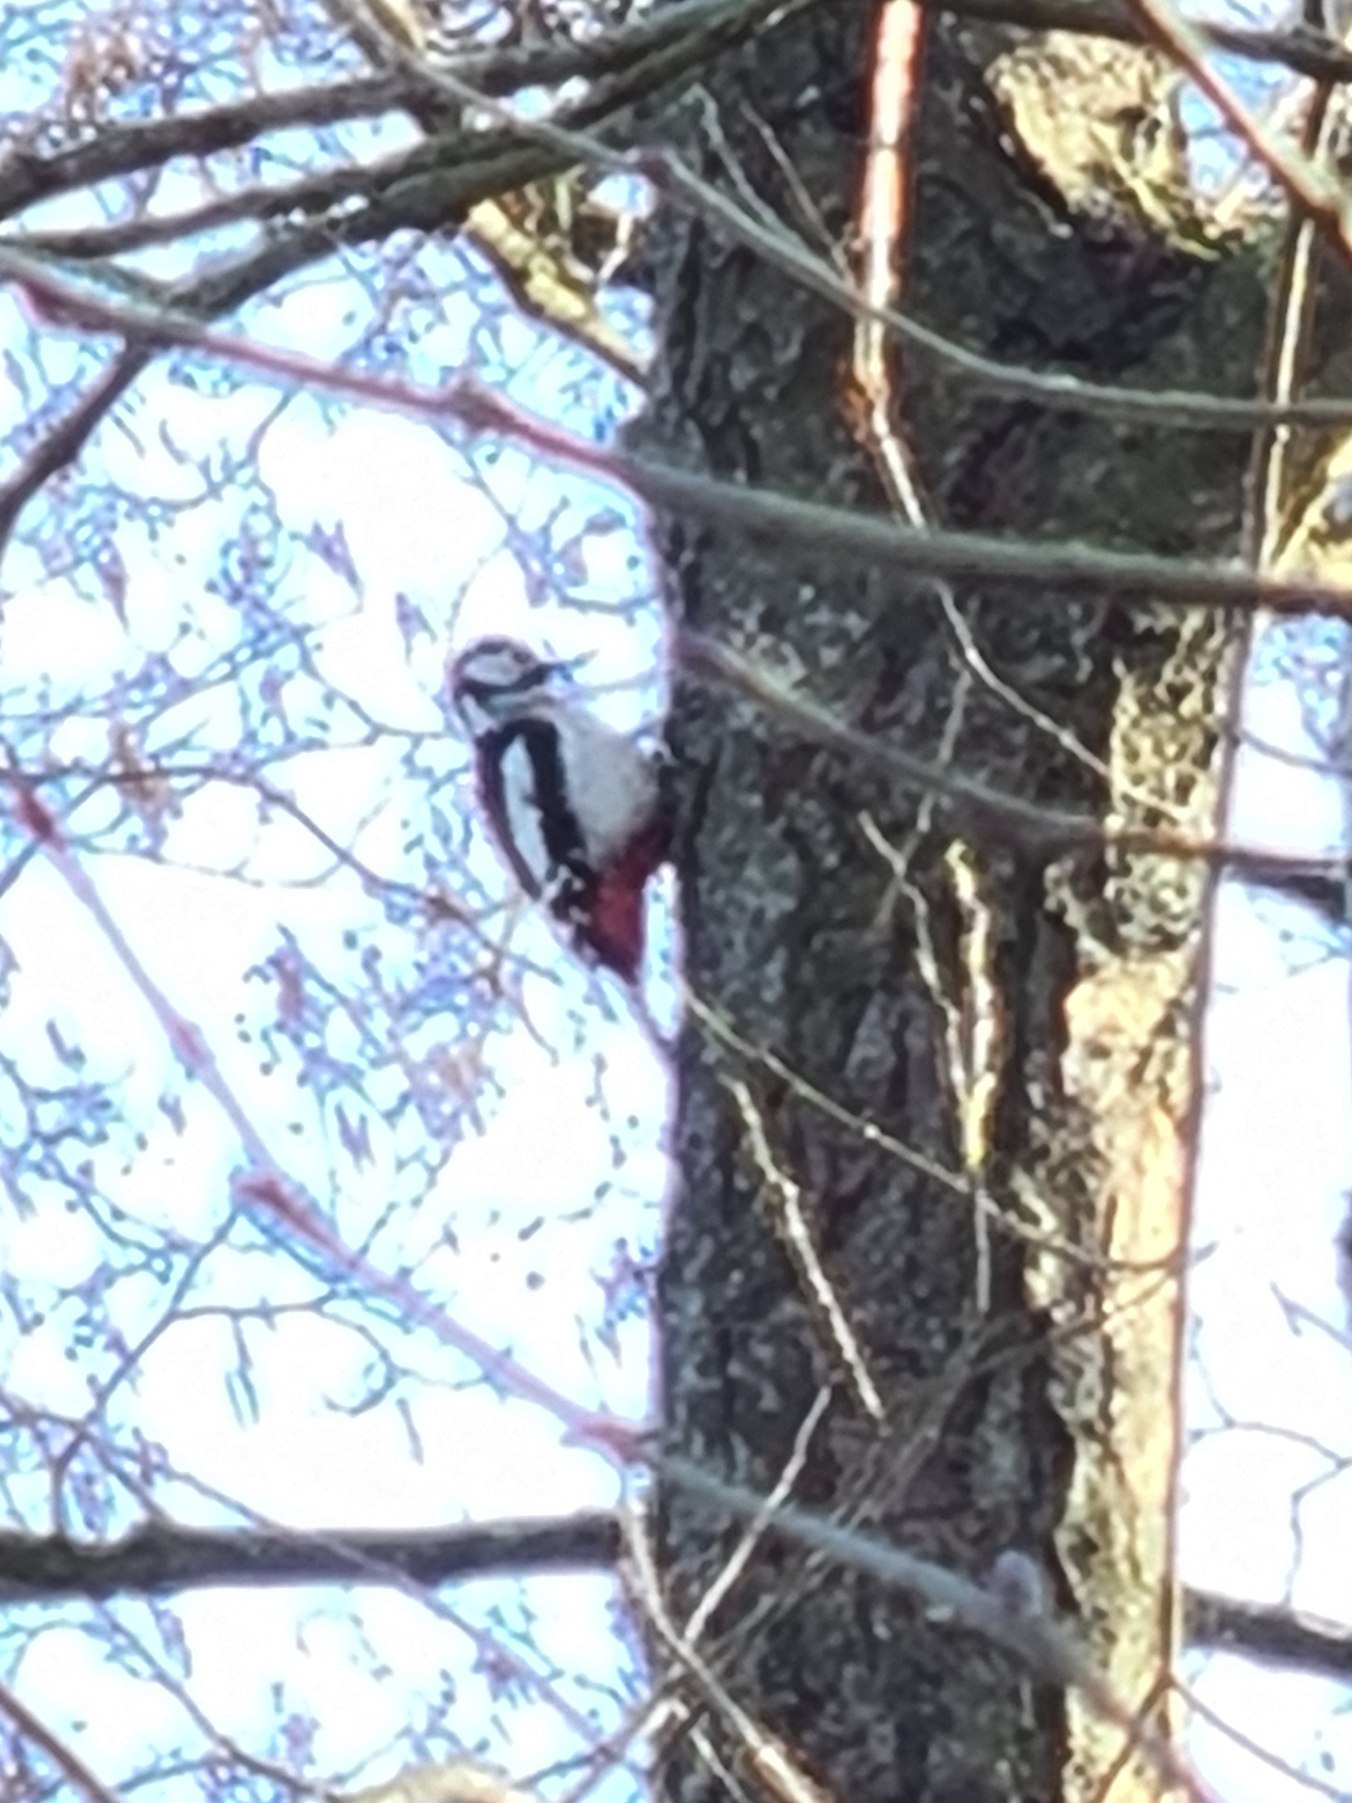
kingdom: Animalia
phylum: Chordata
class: Aves
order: Piciformes
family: Picidae
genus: Dendrocopos
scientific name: Dendrocopos major
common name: Stor flagspætte
